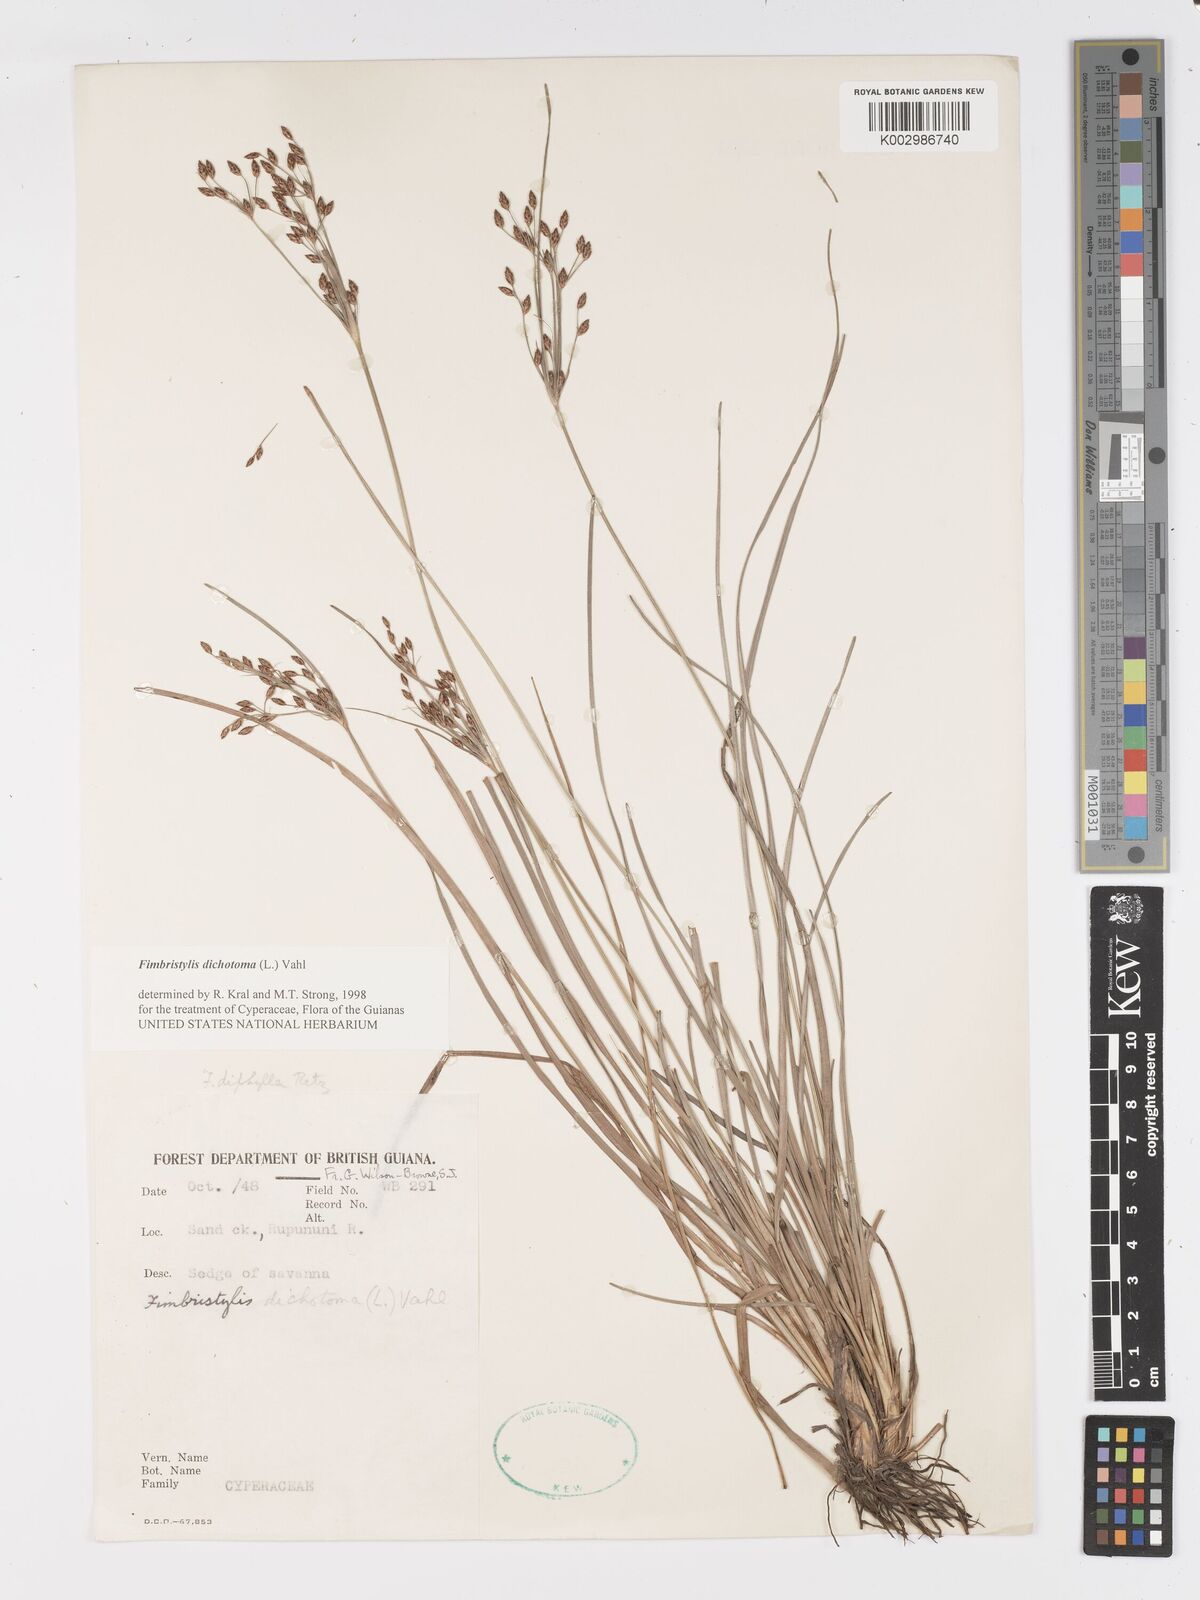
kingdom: Plantae
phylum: Tracheophyta
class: Liliopsida
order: Poales
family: Cyperaceae
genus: Fimbristylis
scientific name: Fimbristylis dichotoma
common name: Forked fimbry
